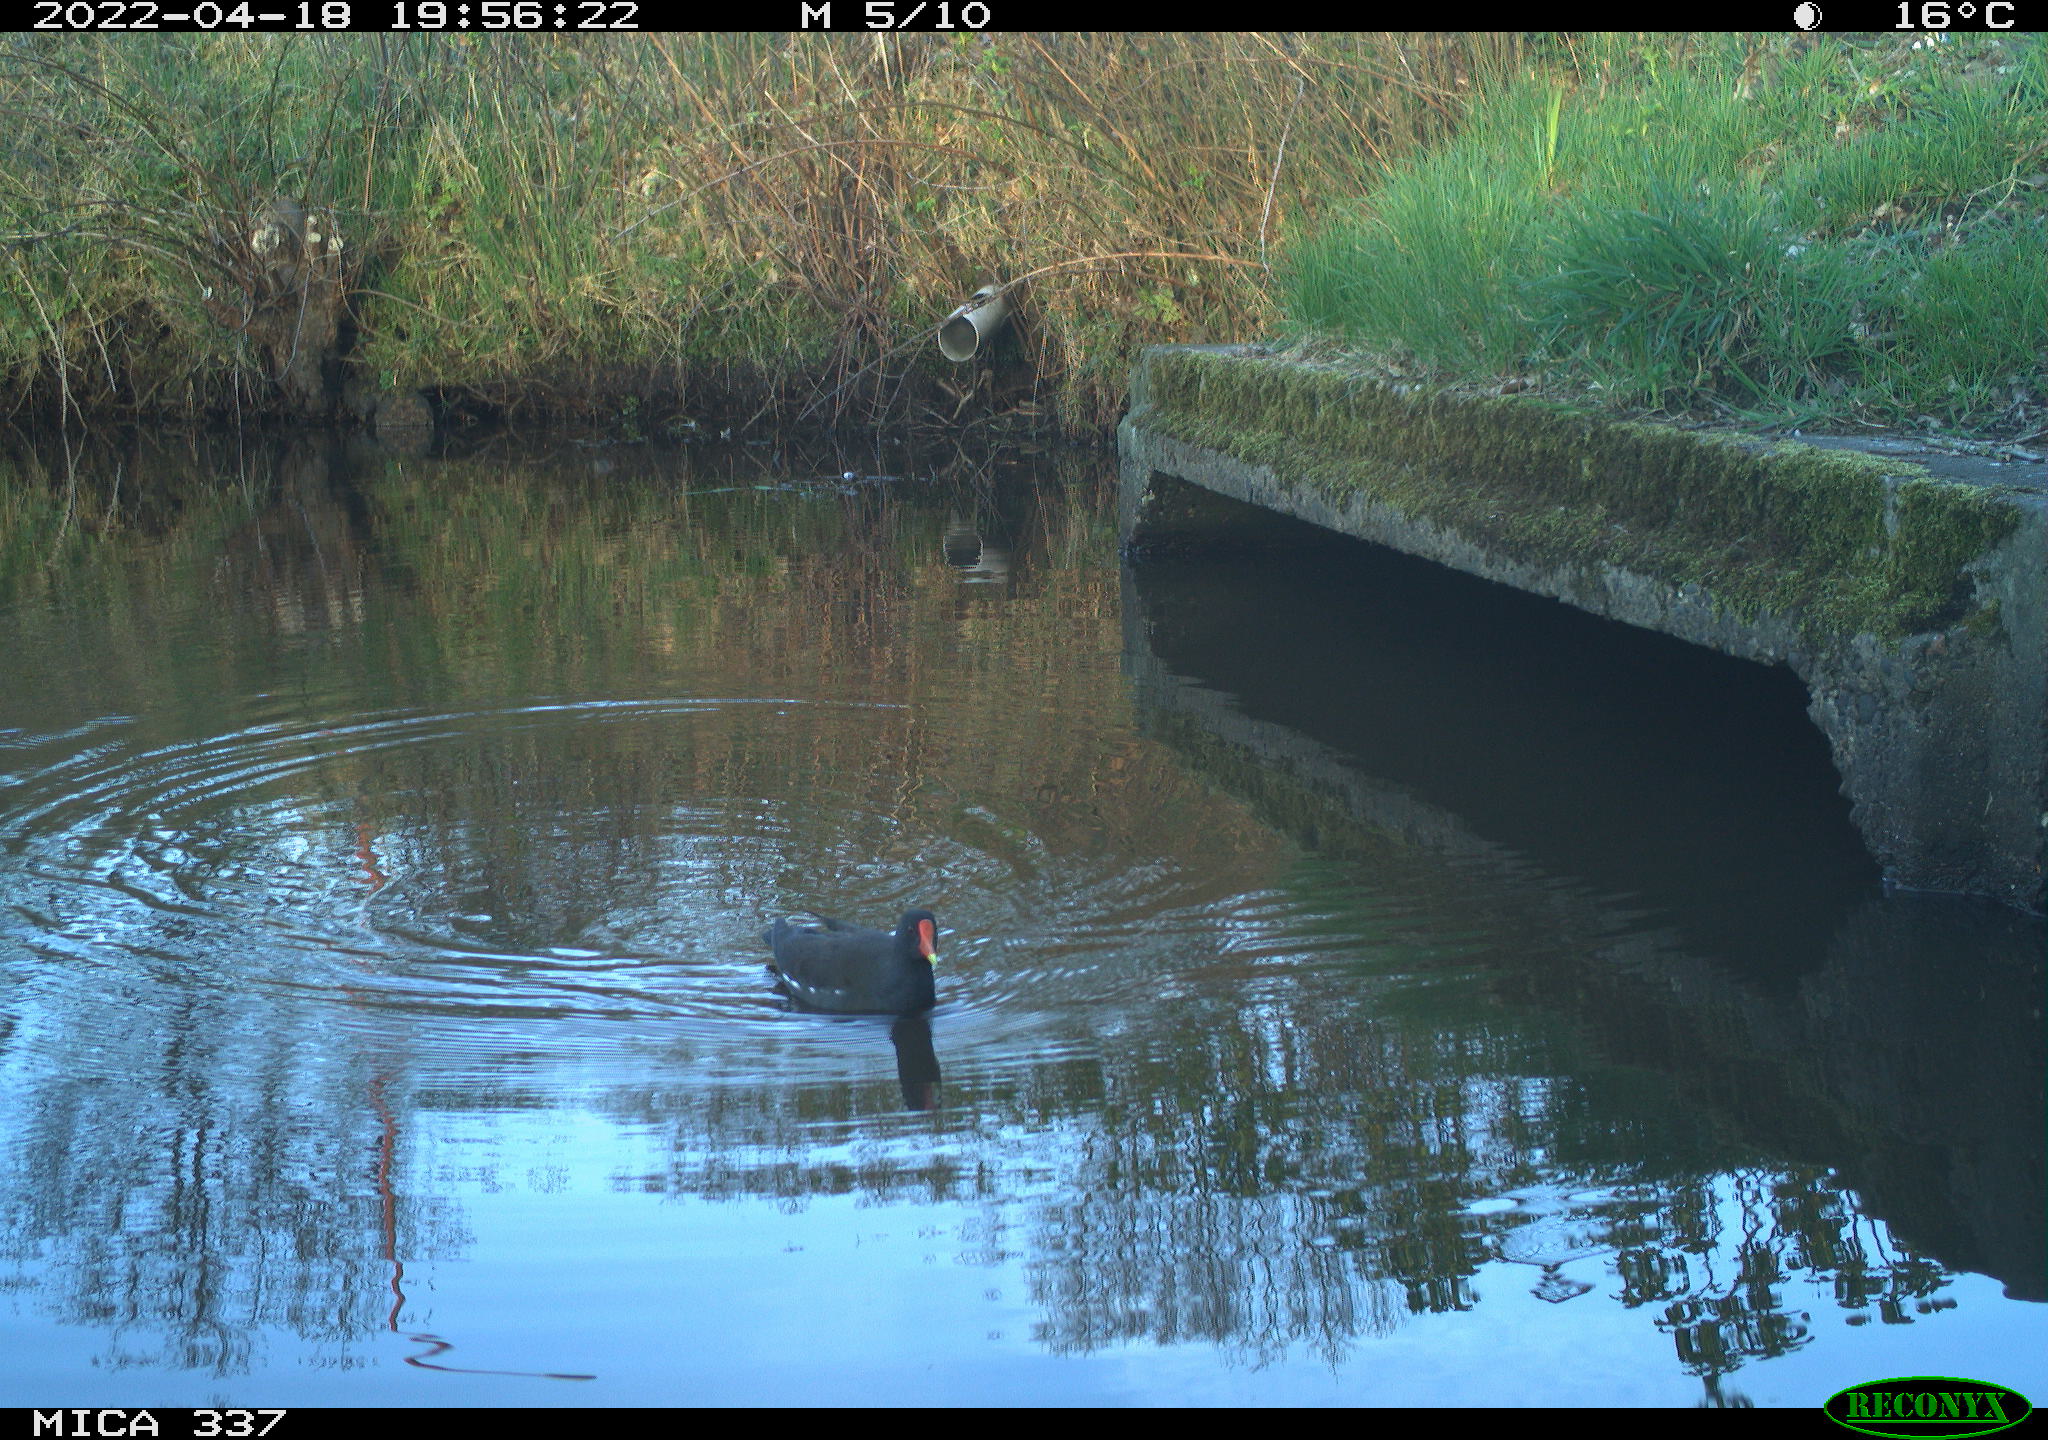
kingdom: Animalia
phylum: Chordata
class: Aves
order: Gruiformes
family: Rallidae
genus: Gallinula
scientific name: Gallinula chloropus
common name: Common moorhen
